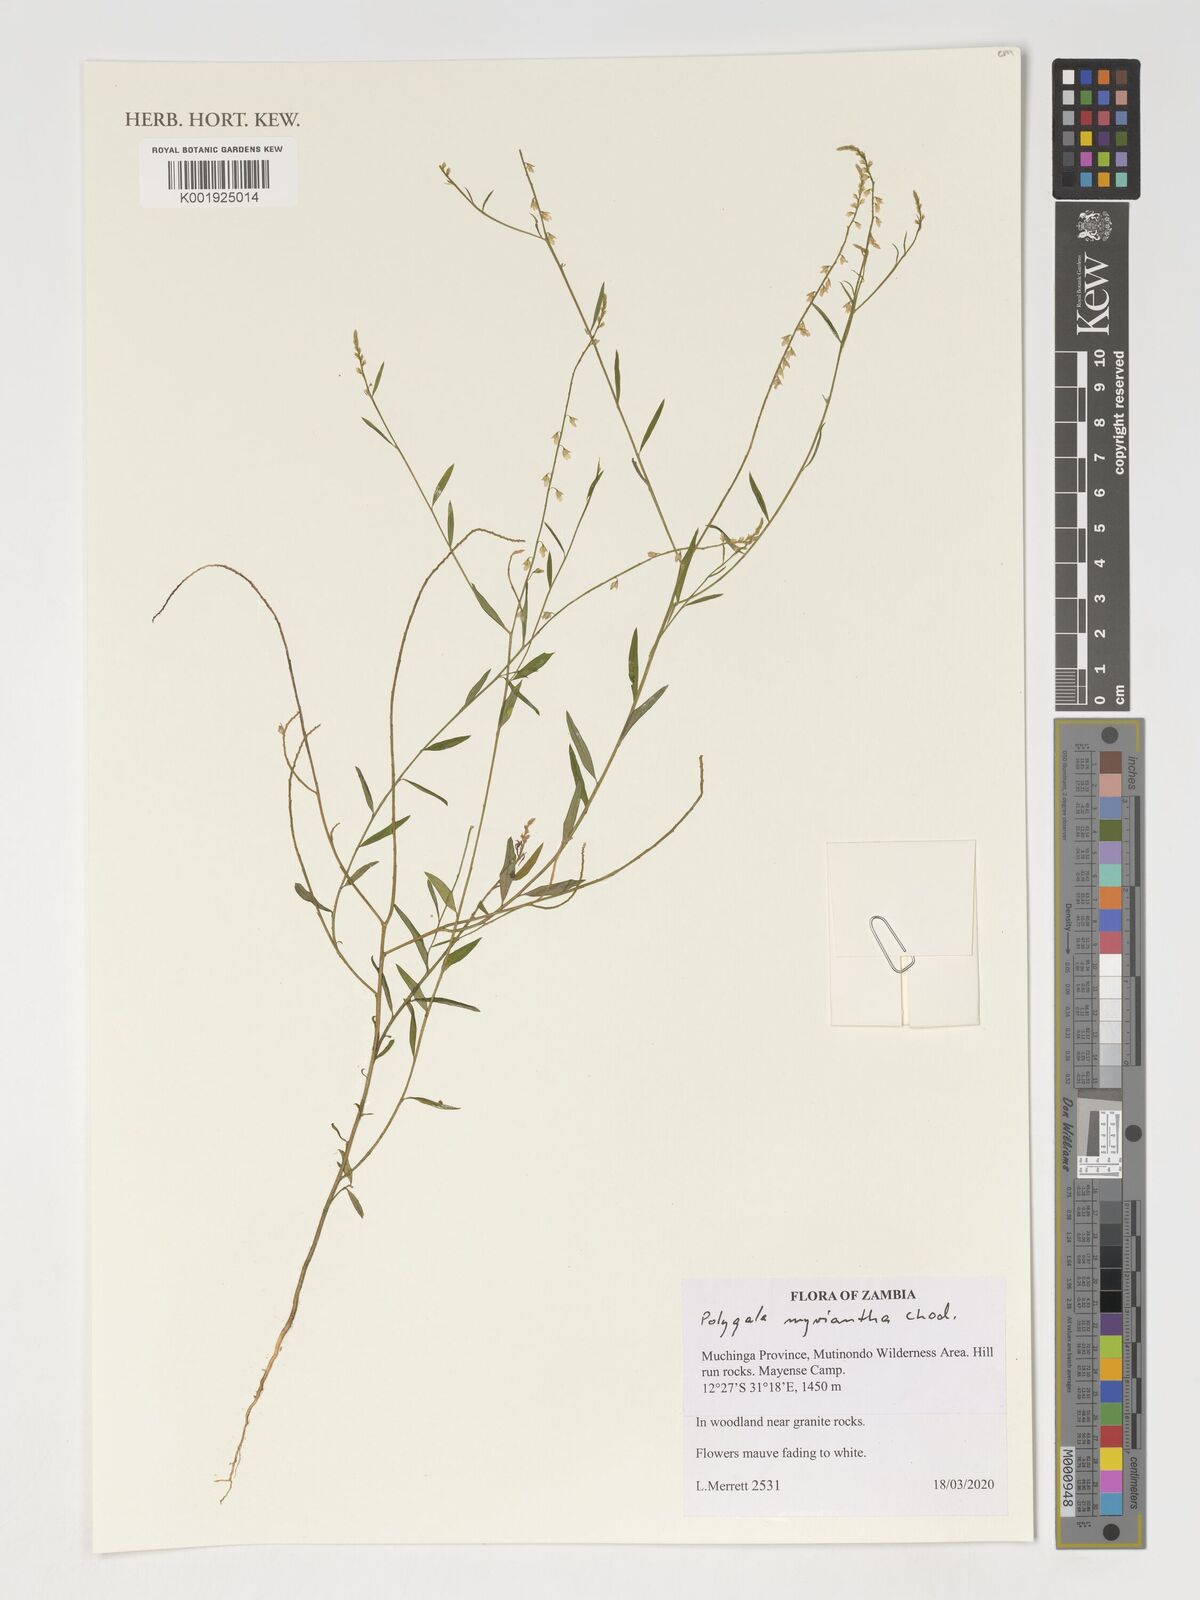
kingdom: Plantae
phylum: Tracheophyta
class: Magnoliopsida
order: Fabales
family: Polygalaceae
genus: Polygala
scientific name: Polygala myriantha
